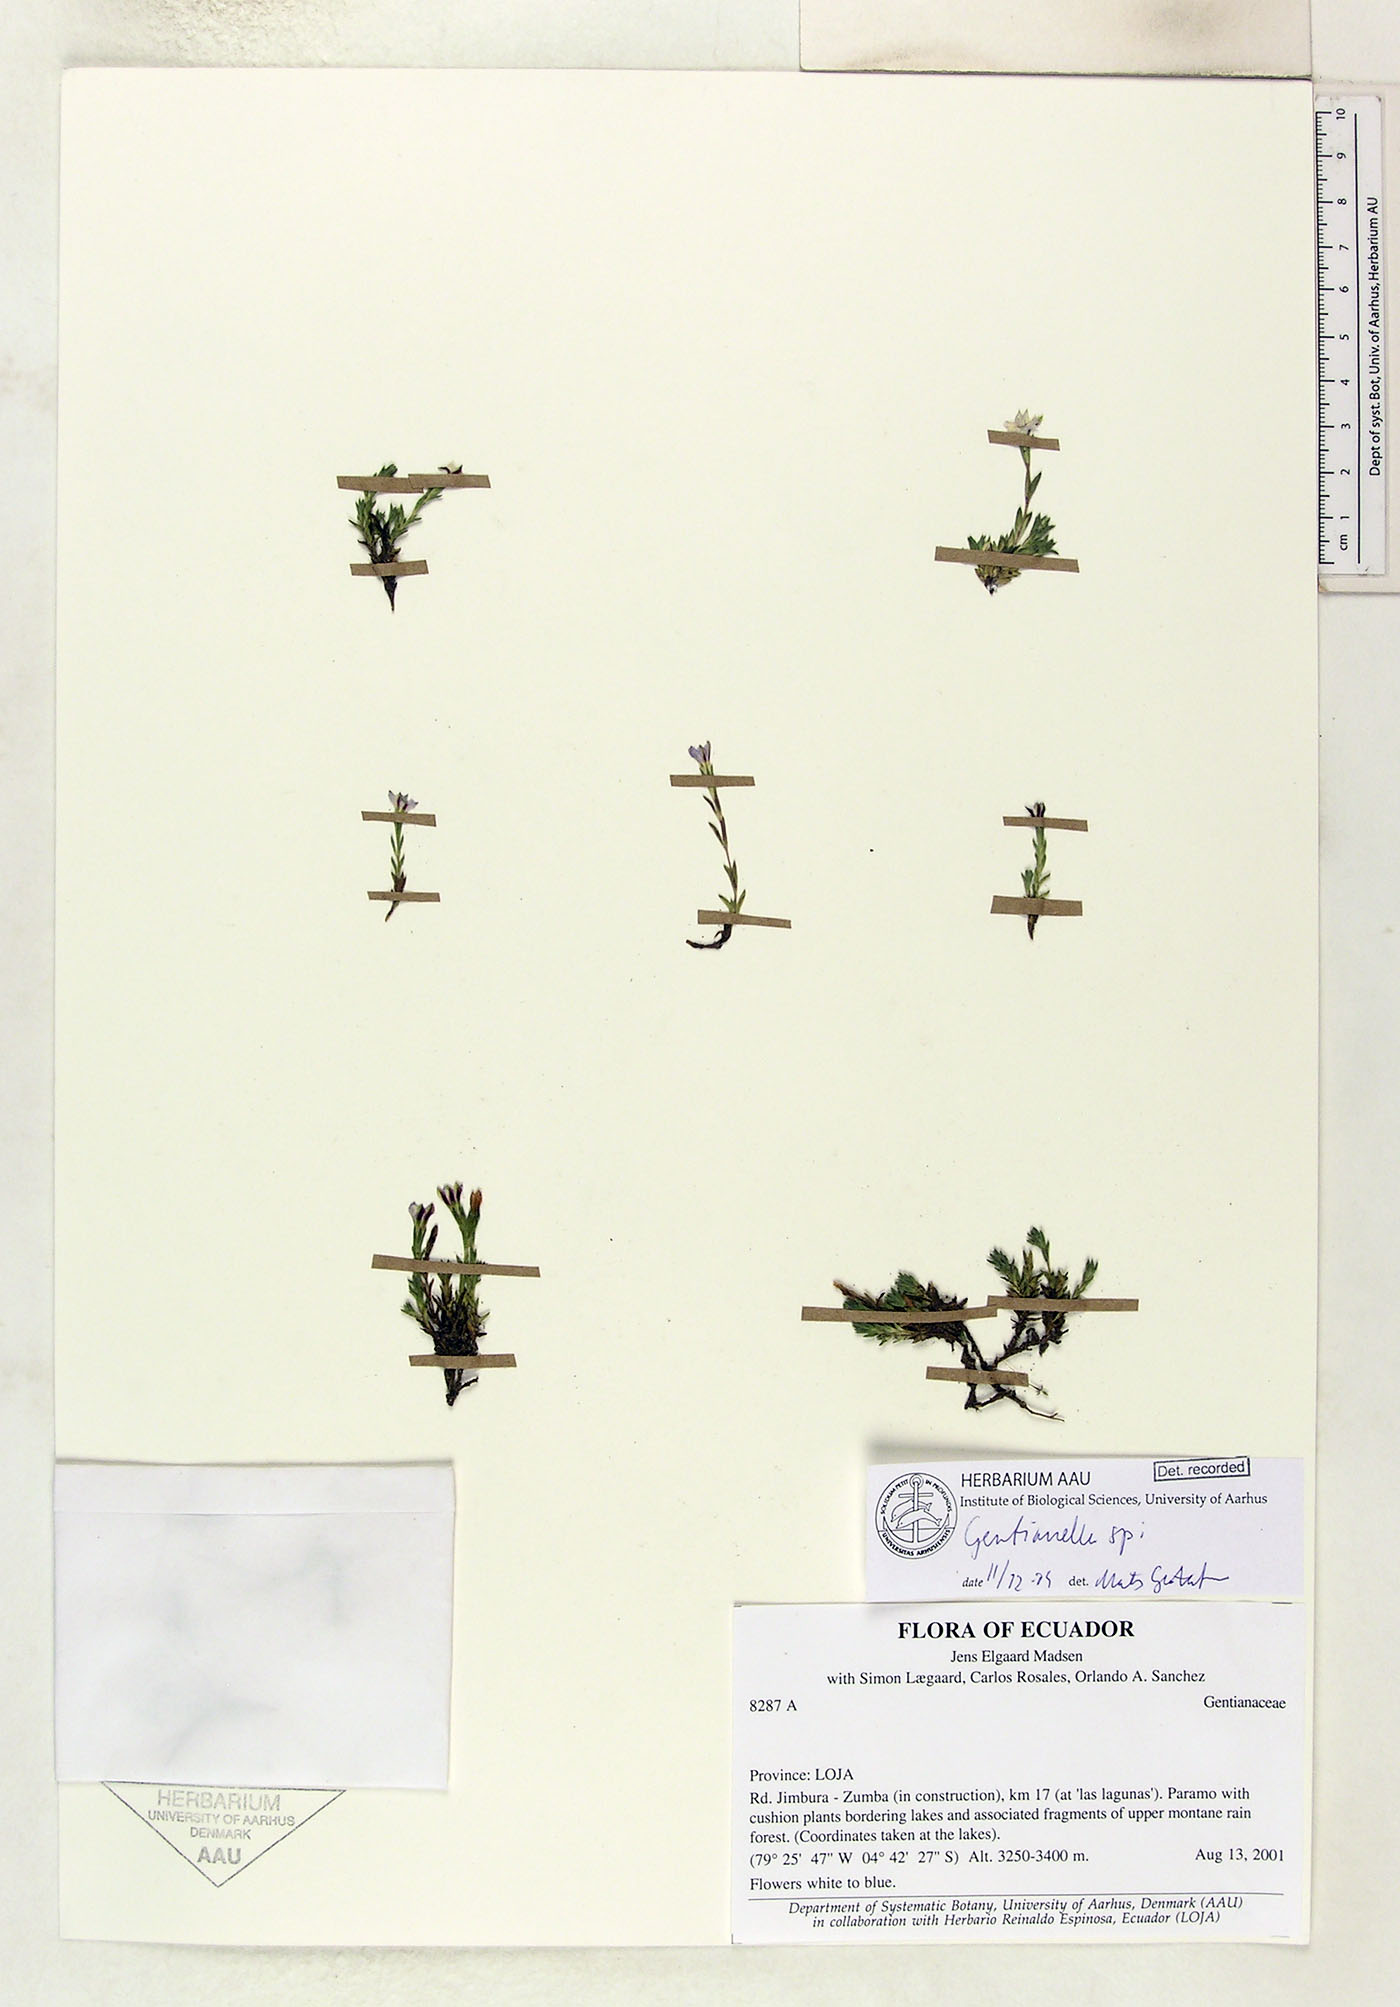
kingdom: Plantae
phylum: Tracheophyta
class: Magnoliopsida
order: Gentianales
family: Gentianaceae
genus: Gentianella
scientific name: Gentianella
